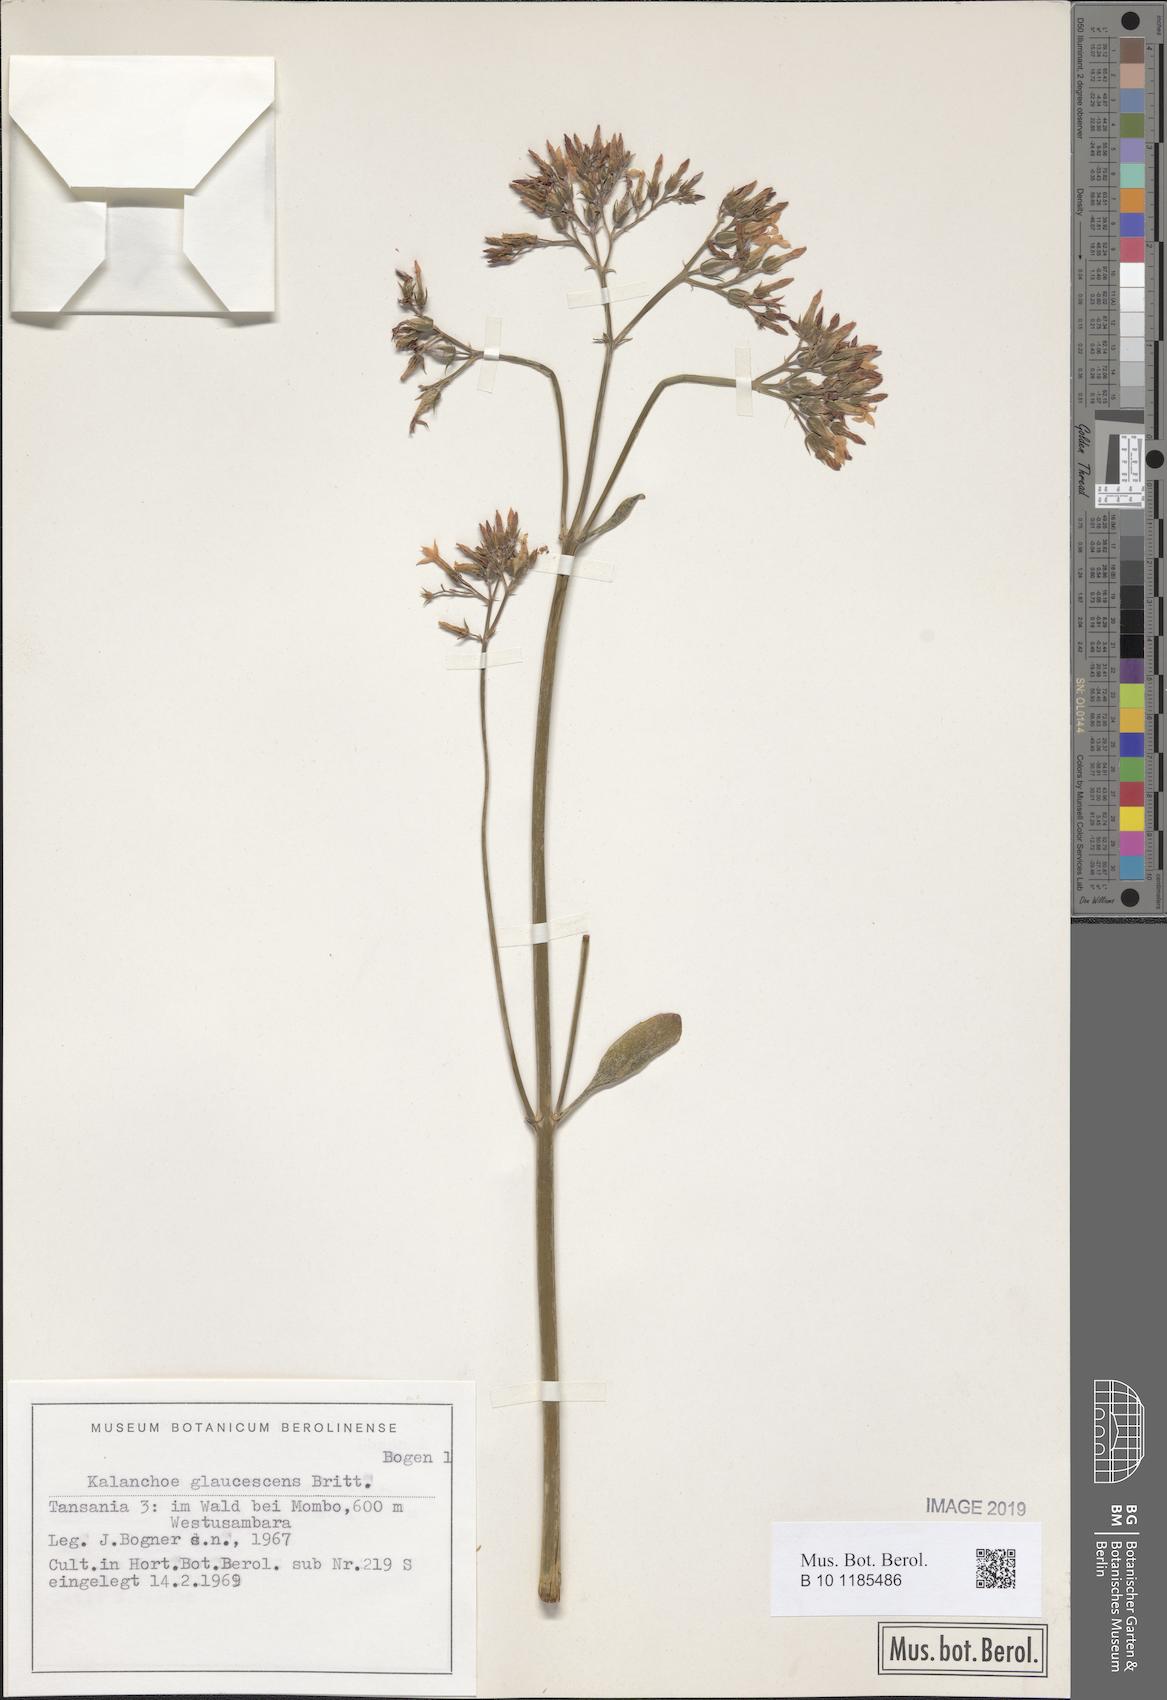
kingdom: Plantae
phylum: Tracheophyta
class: Magnoliopsida
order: Saxifragales
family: Crassulaceae
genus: Kalanchoe
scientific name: Kalanchoe glaucescens
